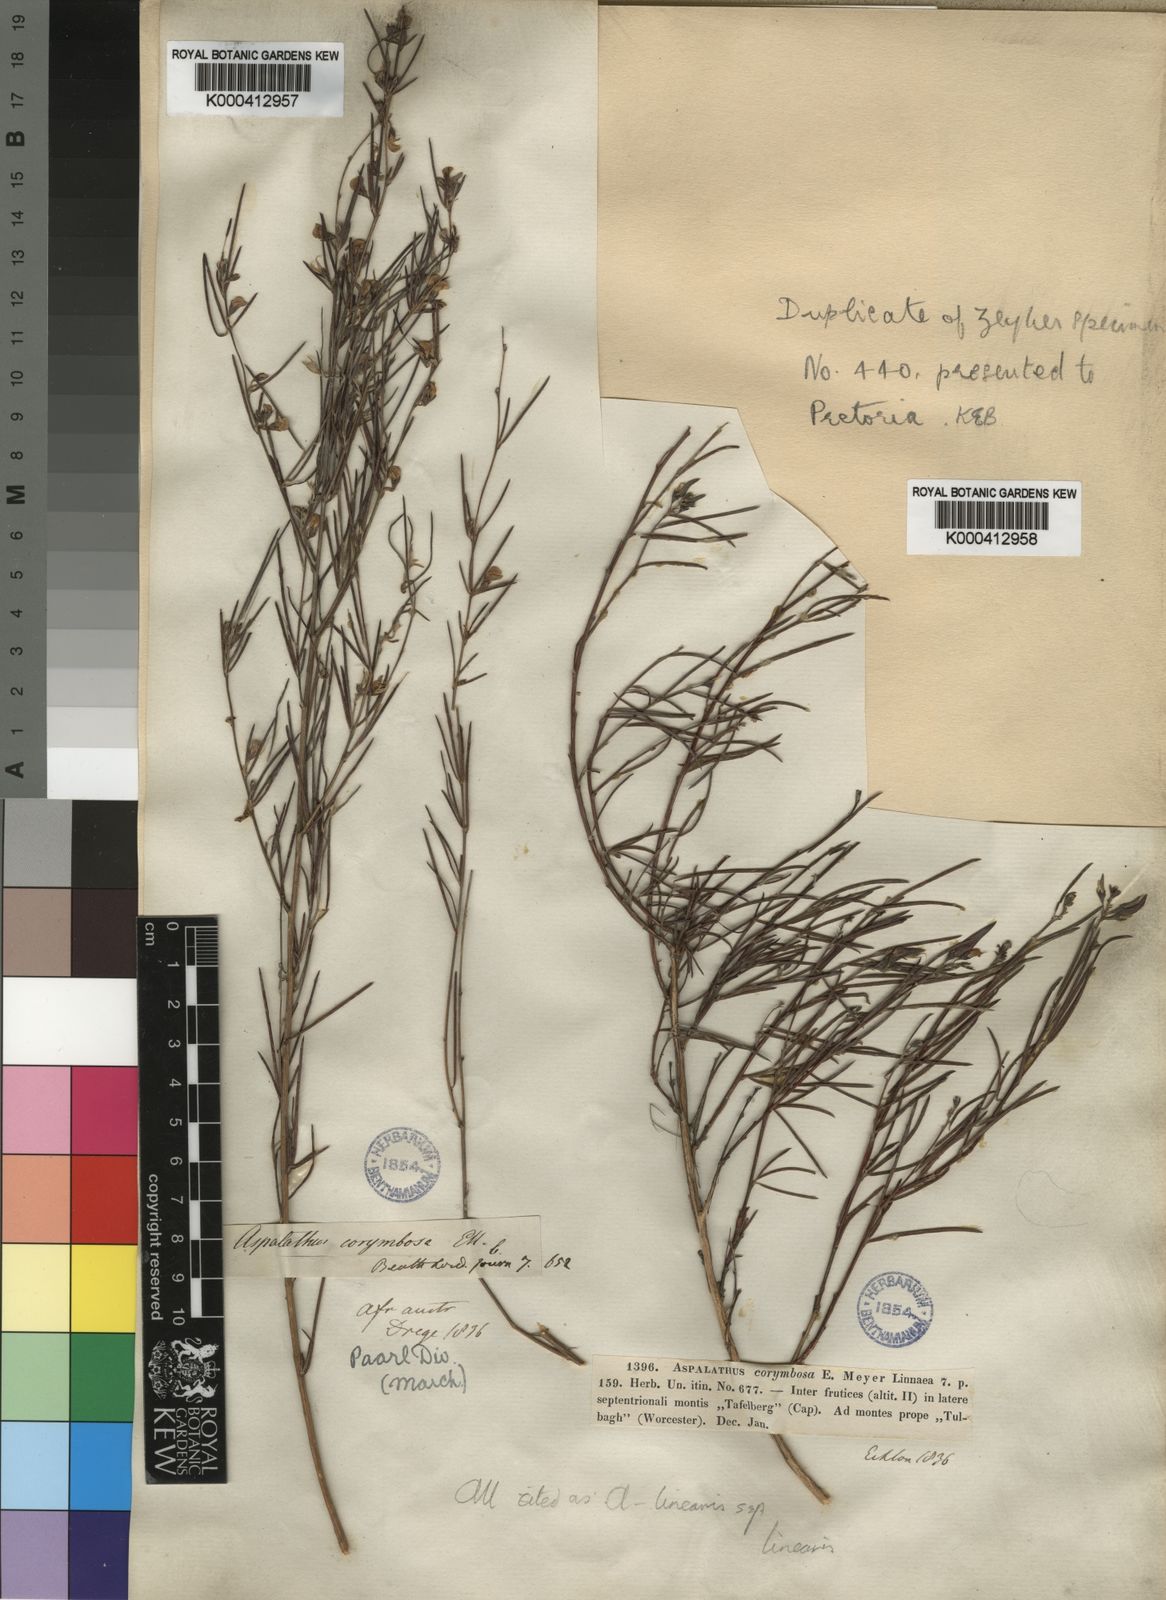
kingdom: Plantae
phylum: Tracheophyta
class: Magnoliopsida
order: Fabales
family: Fabaceae
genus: Aspalathus
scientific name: Aspalathus linearis
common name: Rooibos-tea
